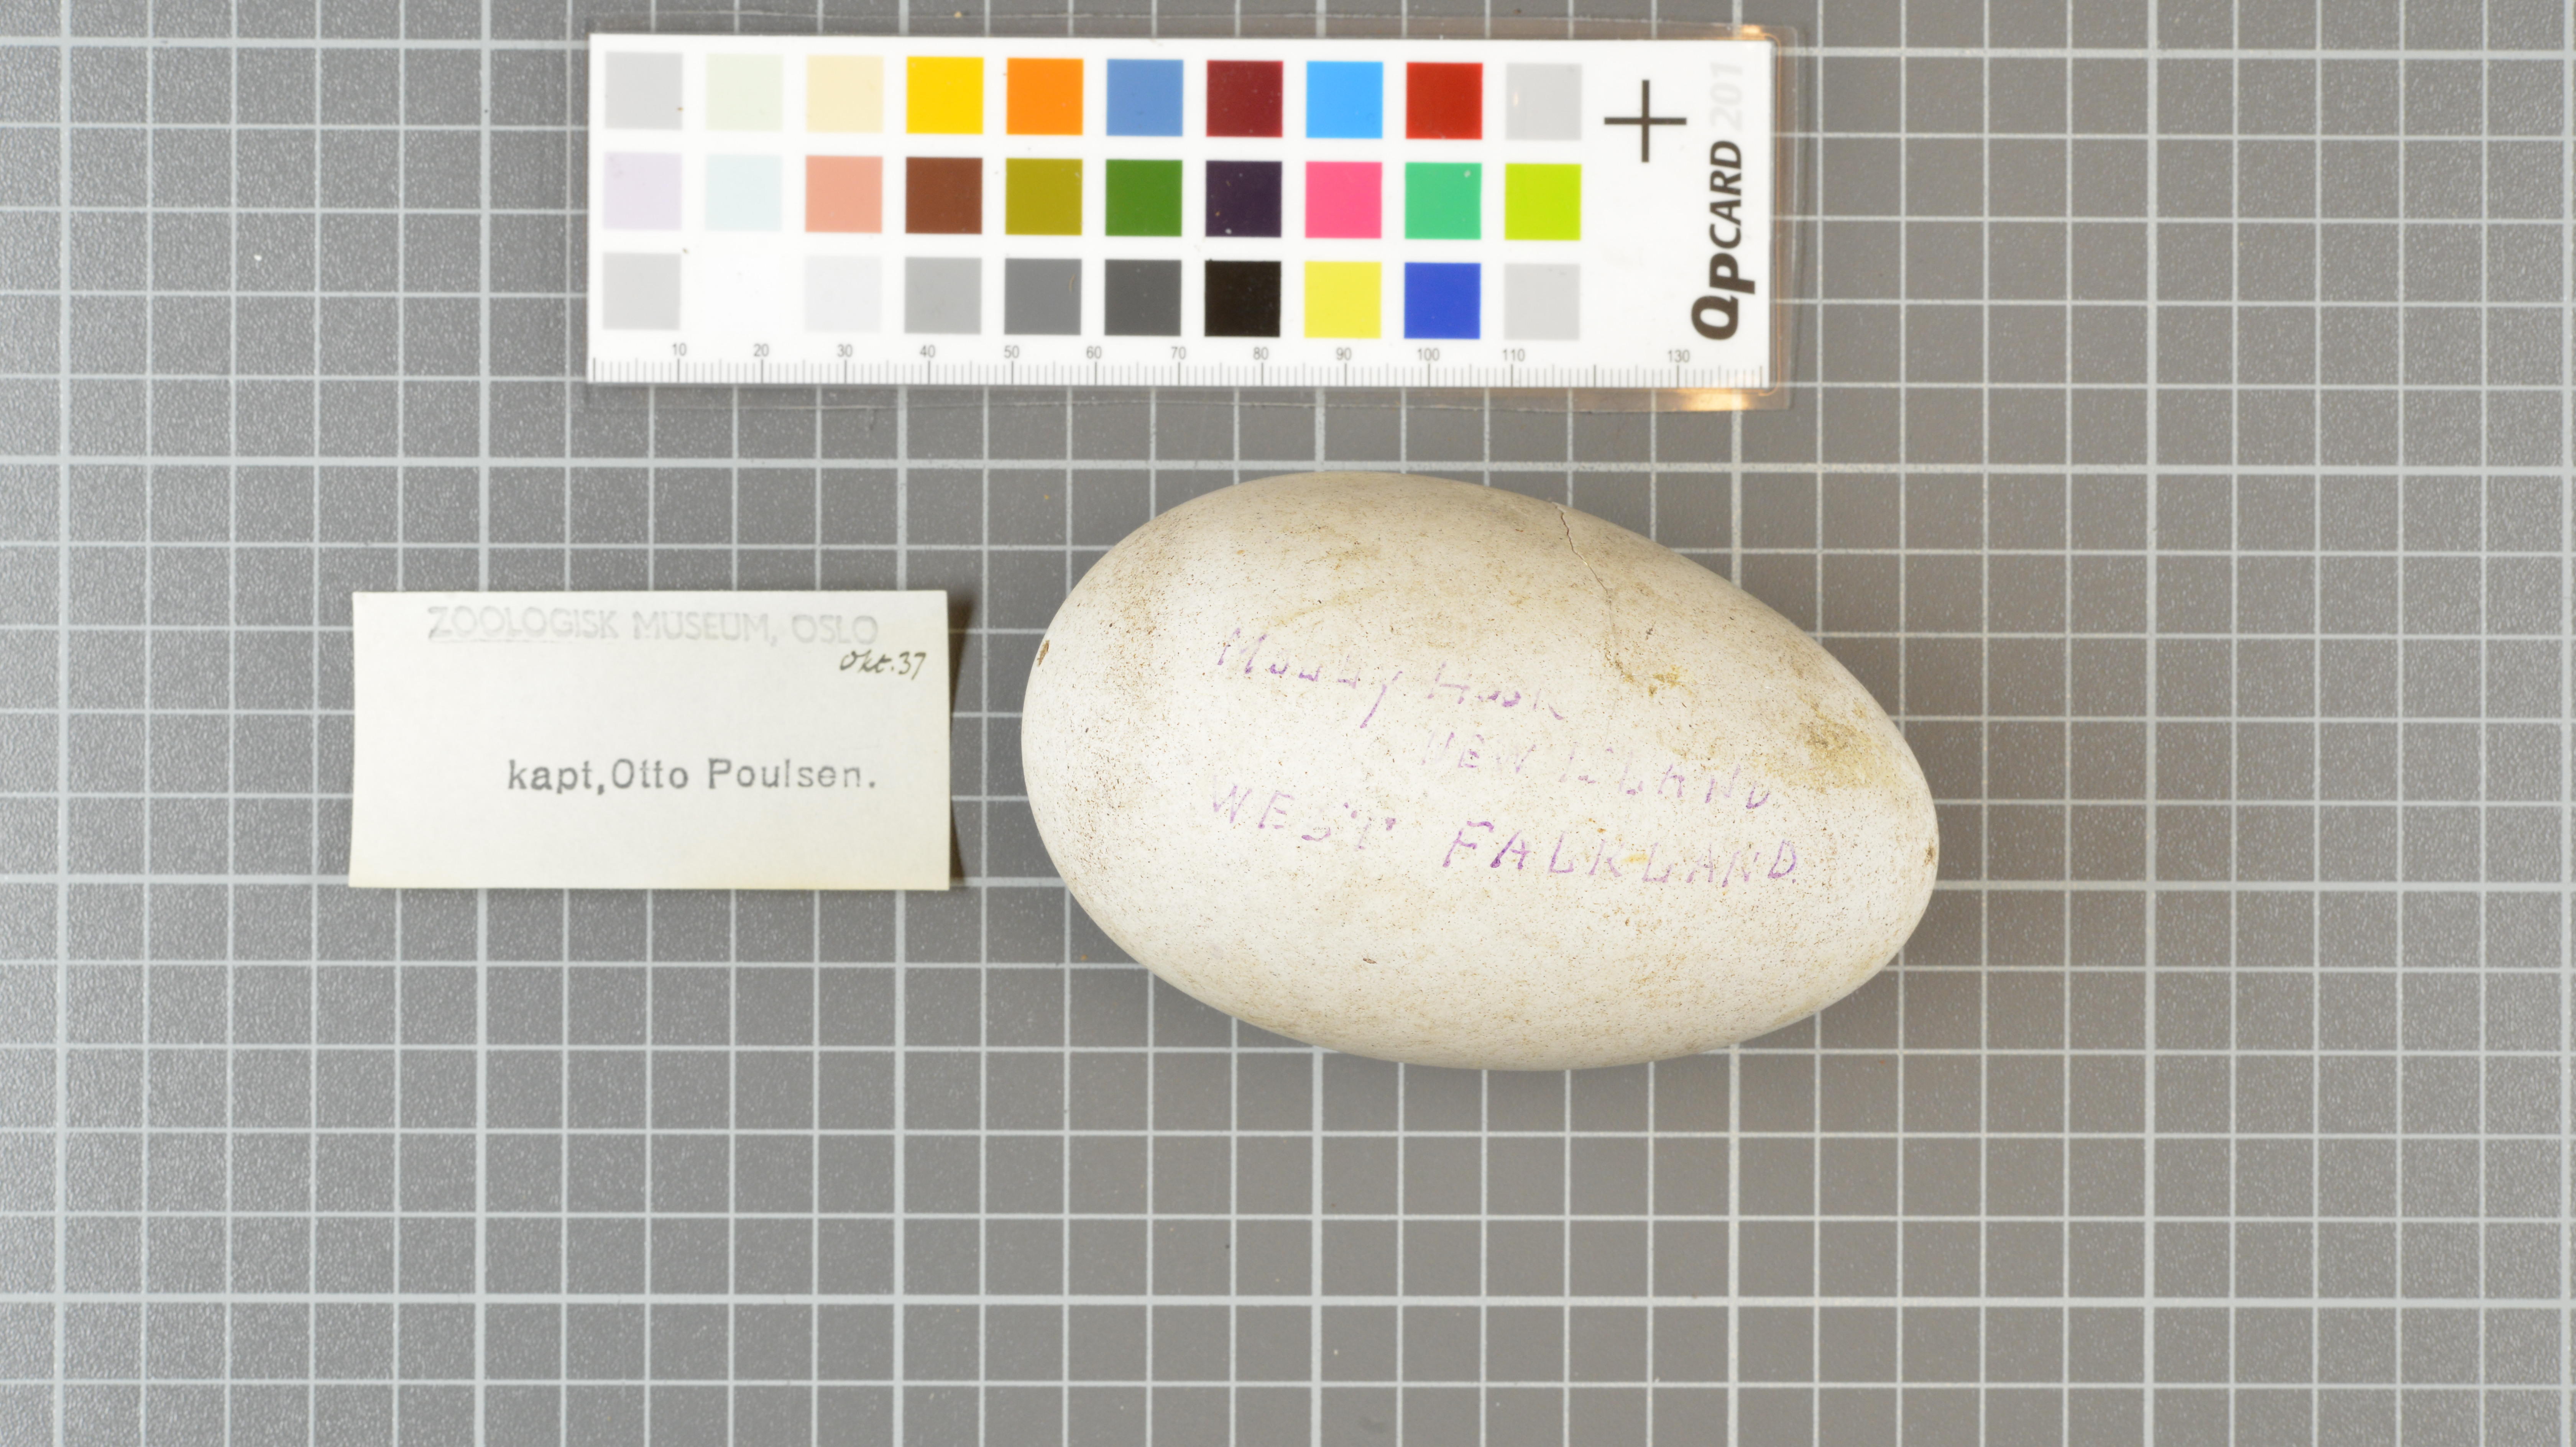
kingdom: Animalia
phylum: Chordata
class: Aves
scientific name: Aves
